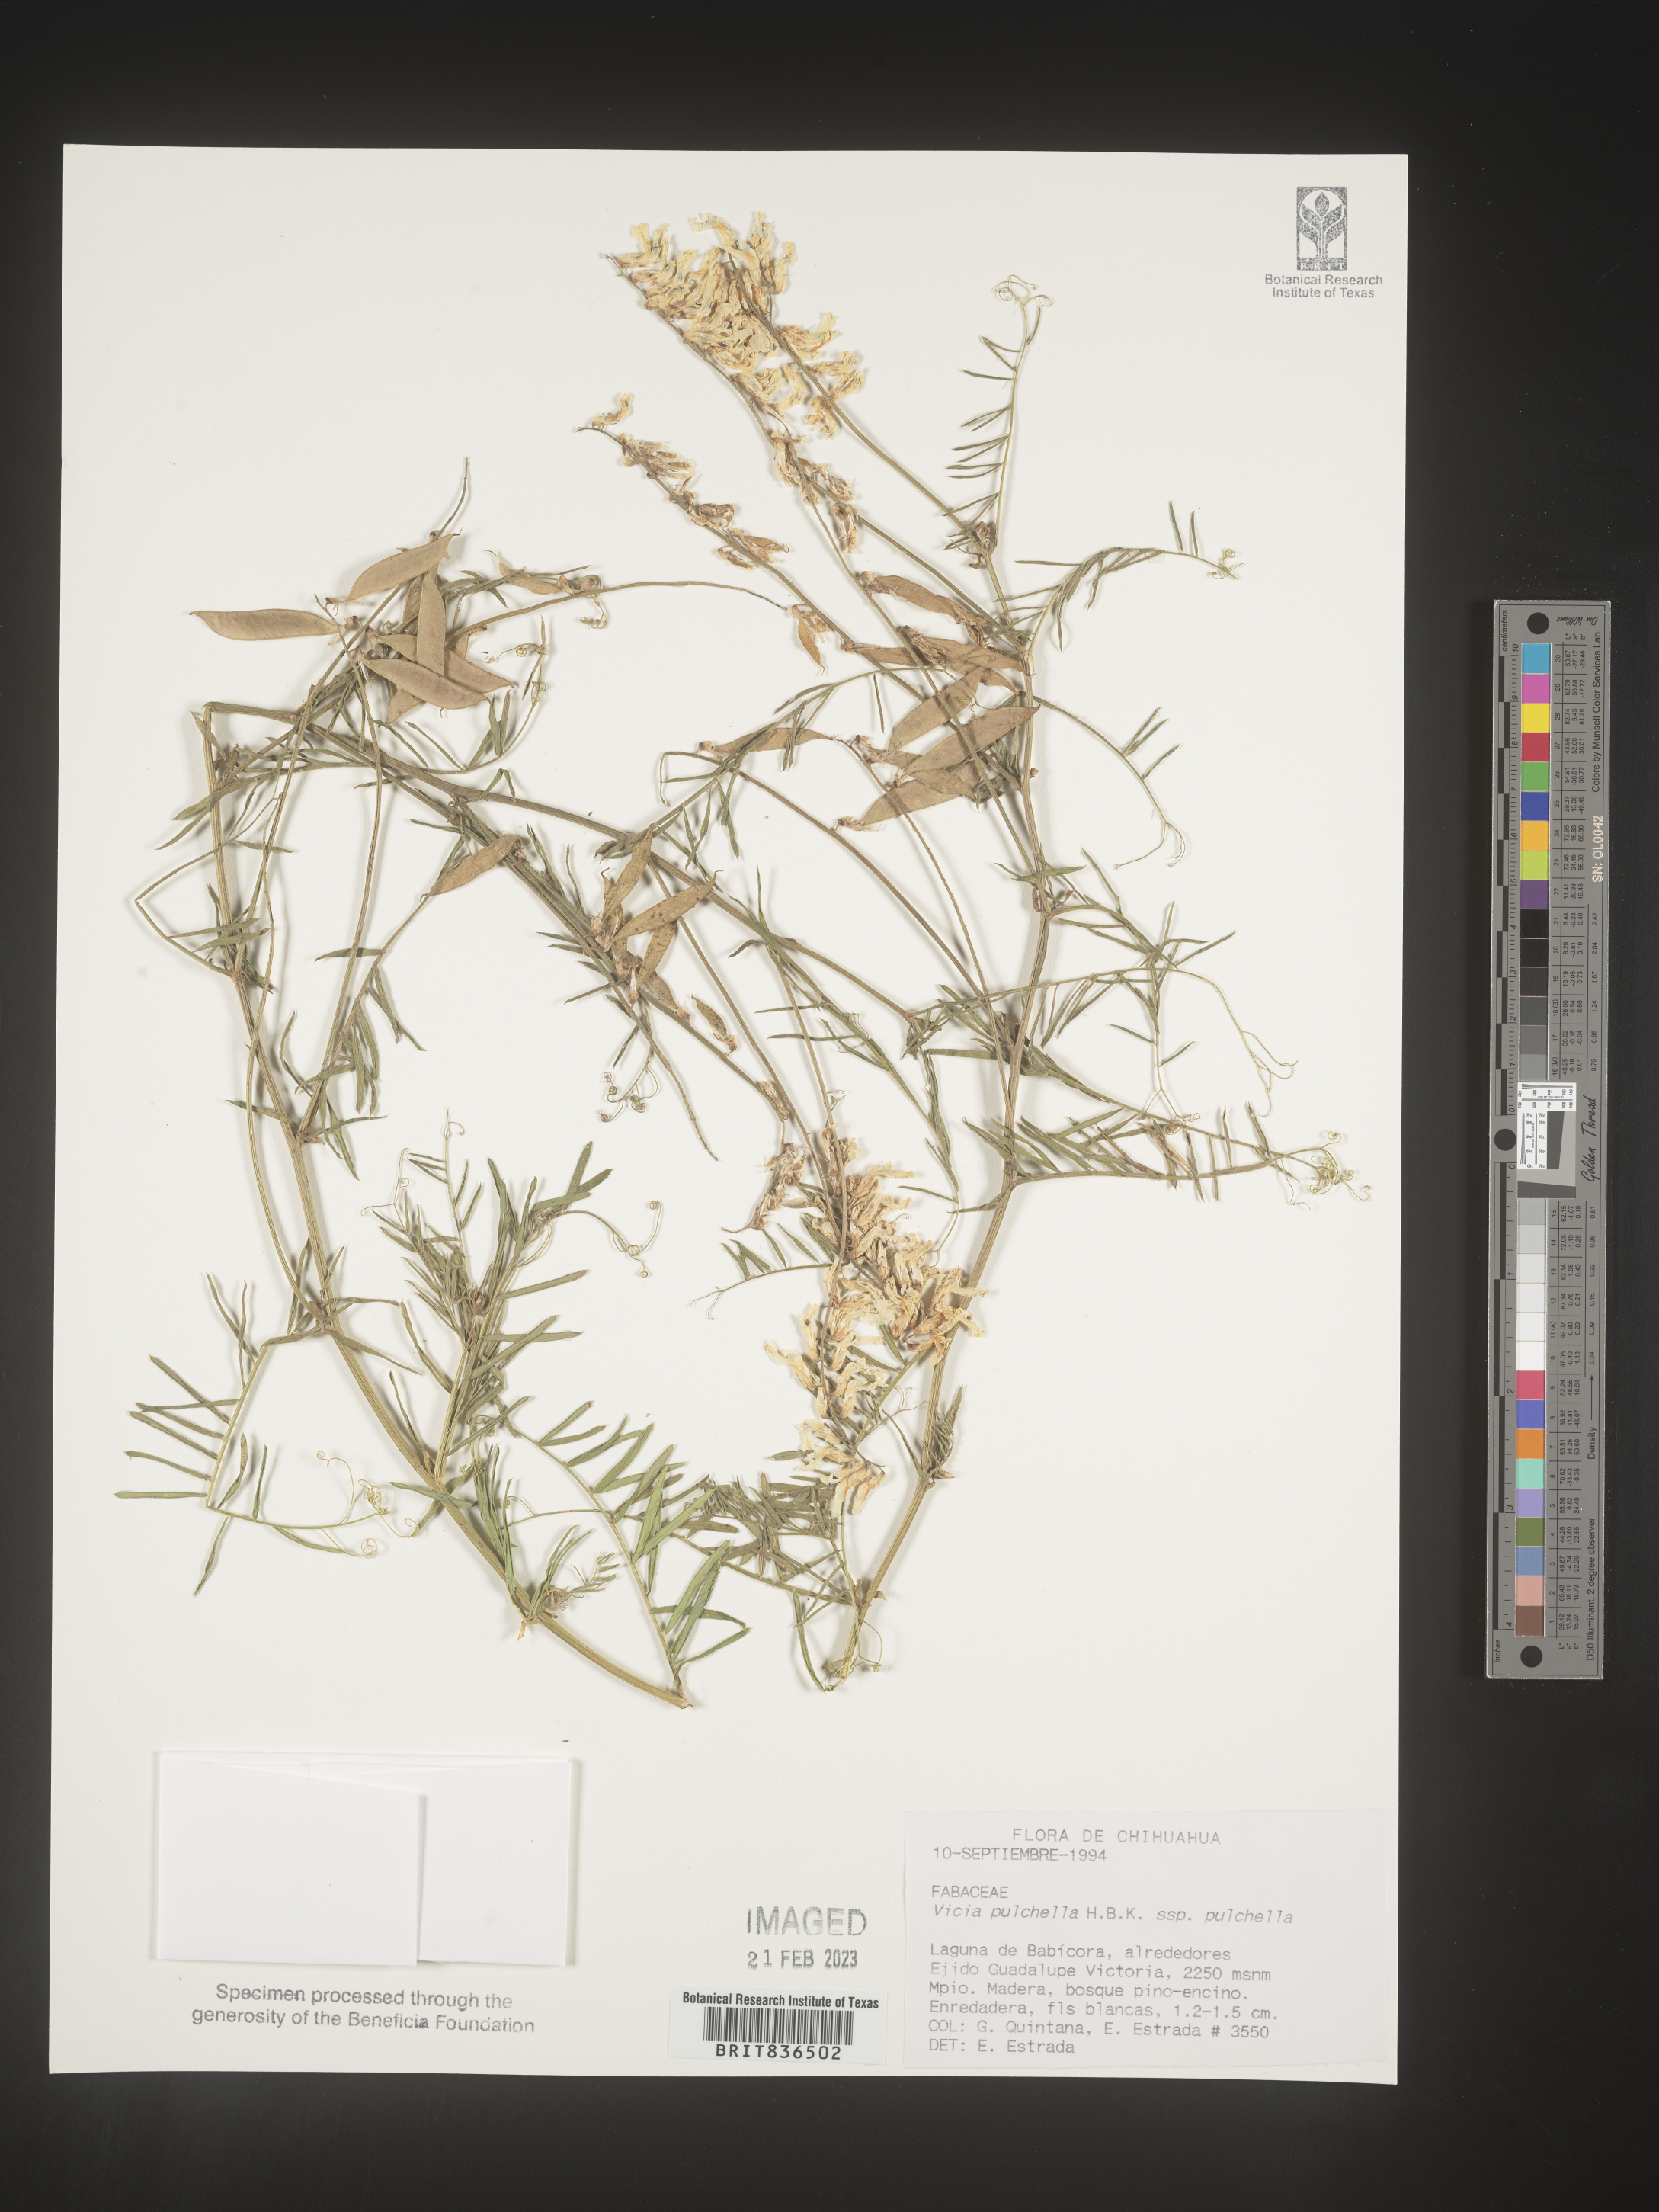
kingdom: Plantae
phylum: Tracheophyta
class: Magnoliopsida
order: Fabales
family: Fabaceae
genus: Vicia
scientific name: Vicia
